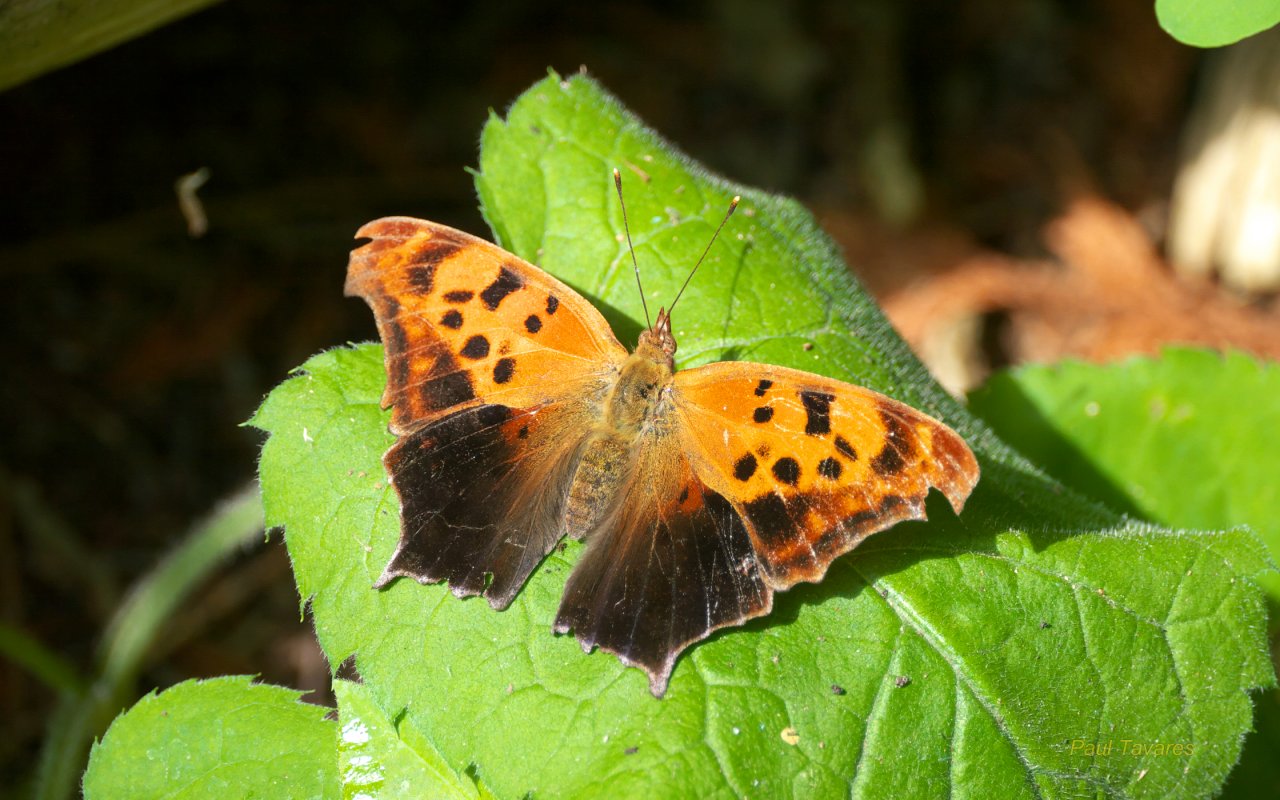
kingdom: Animalia
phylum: Arthropoda
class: Insecta
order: Lepidoptera
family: Nymphalidae
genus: Polygonia
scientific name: Polygonia interrogationis
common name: Question Mark
